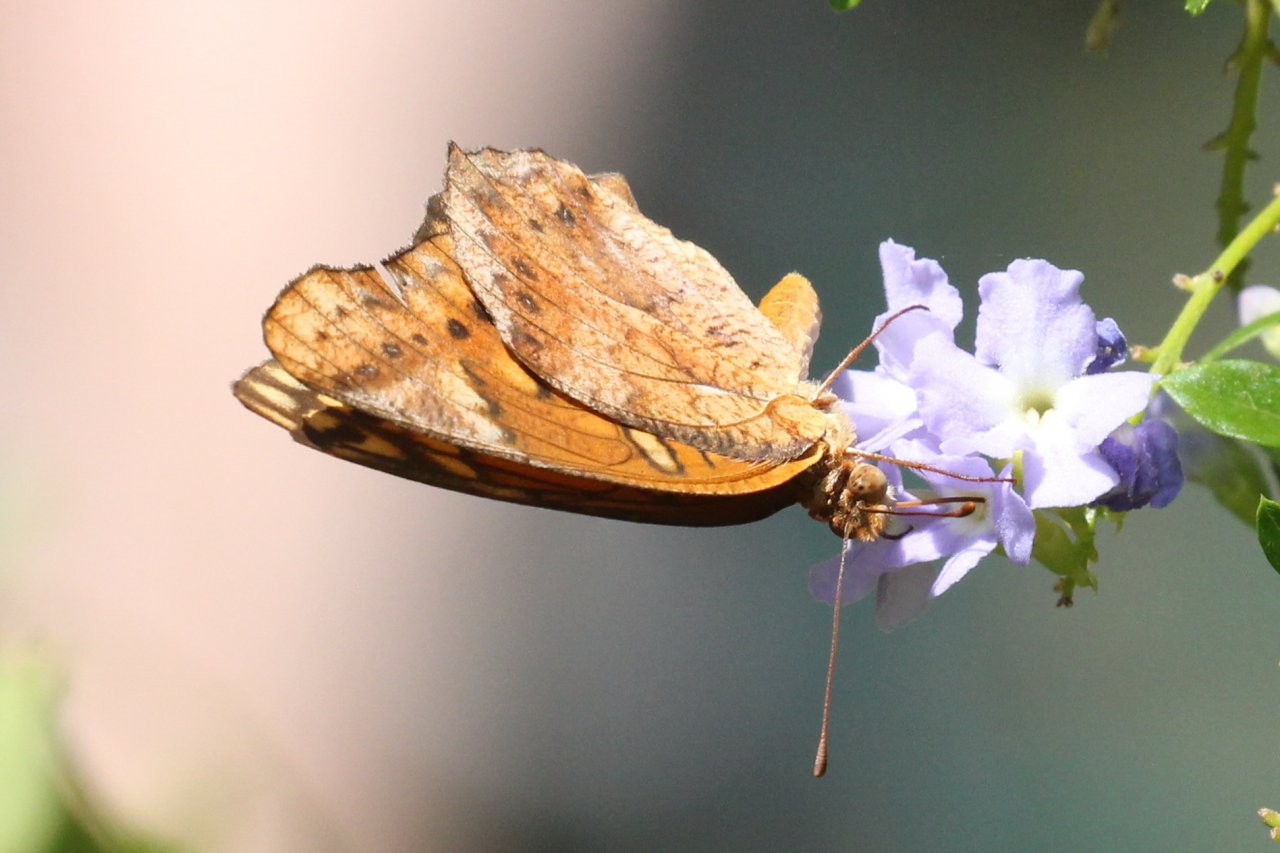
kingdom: Animalia
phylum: Arthropoda
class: Insecta
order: Lepidoptera
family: Nymphalidae
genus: Euptoieta
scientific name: Euptoieta hegesia
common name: Mexican Fritillary
